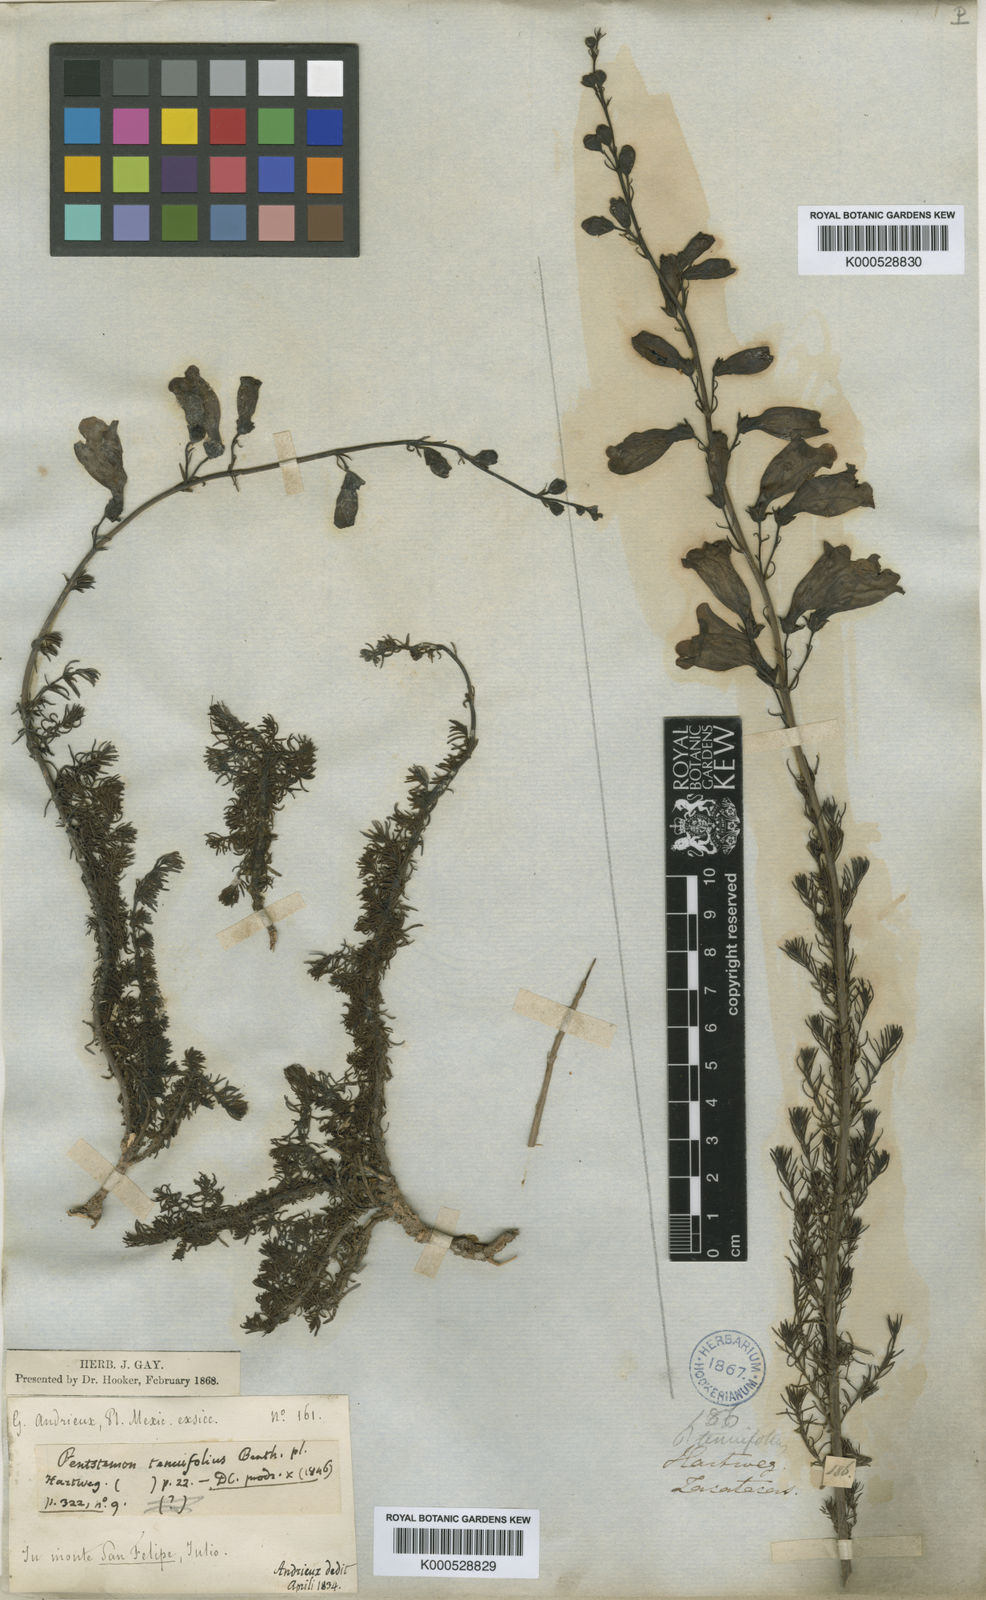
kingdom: Plantae
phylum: Tracheophyta
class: Magnoliopsida
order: Lamiales
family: Plantaginaceae
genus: Penstemon
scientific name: Penstemon tenuifolius
